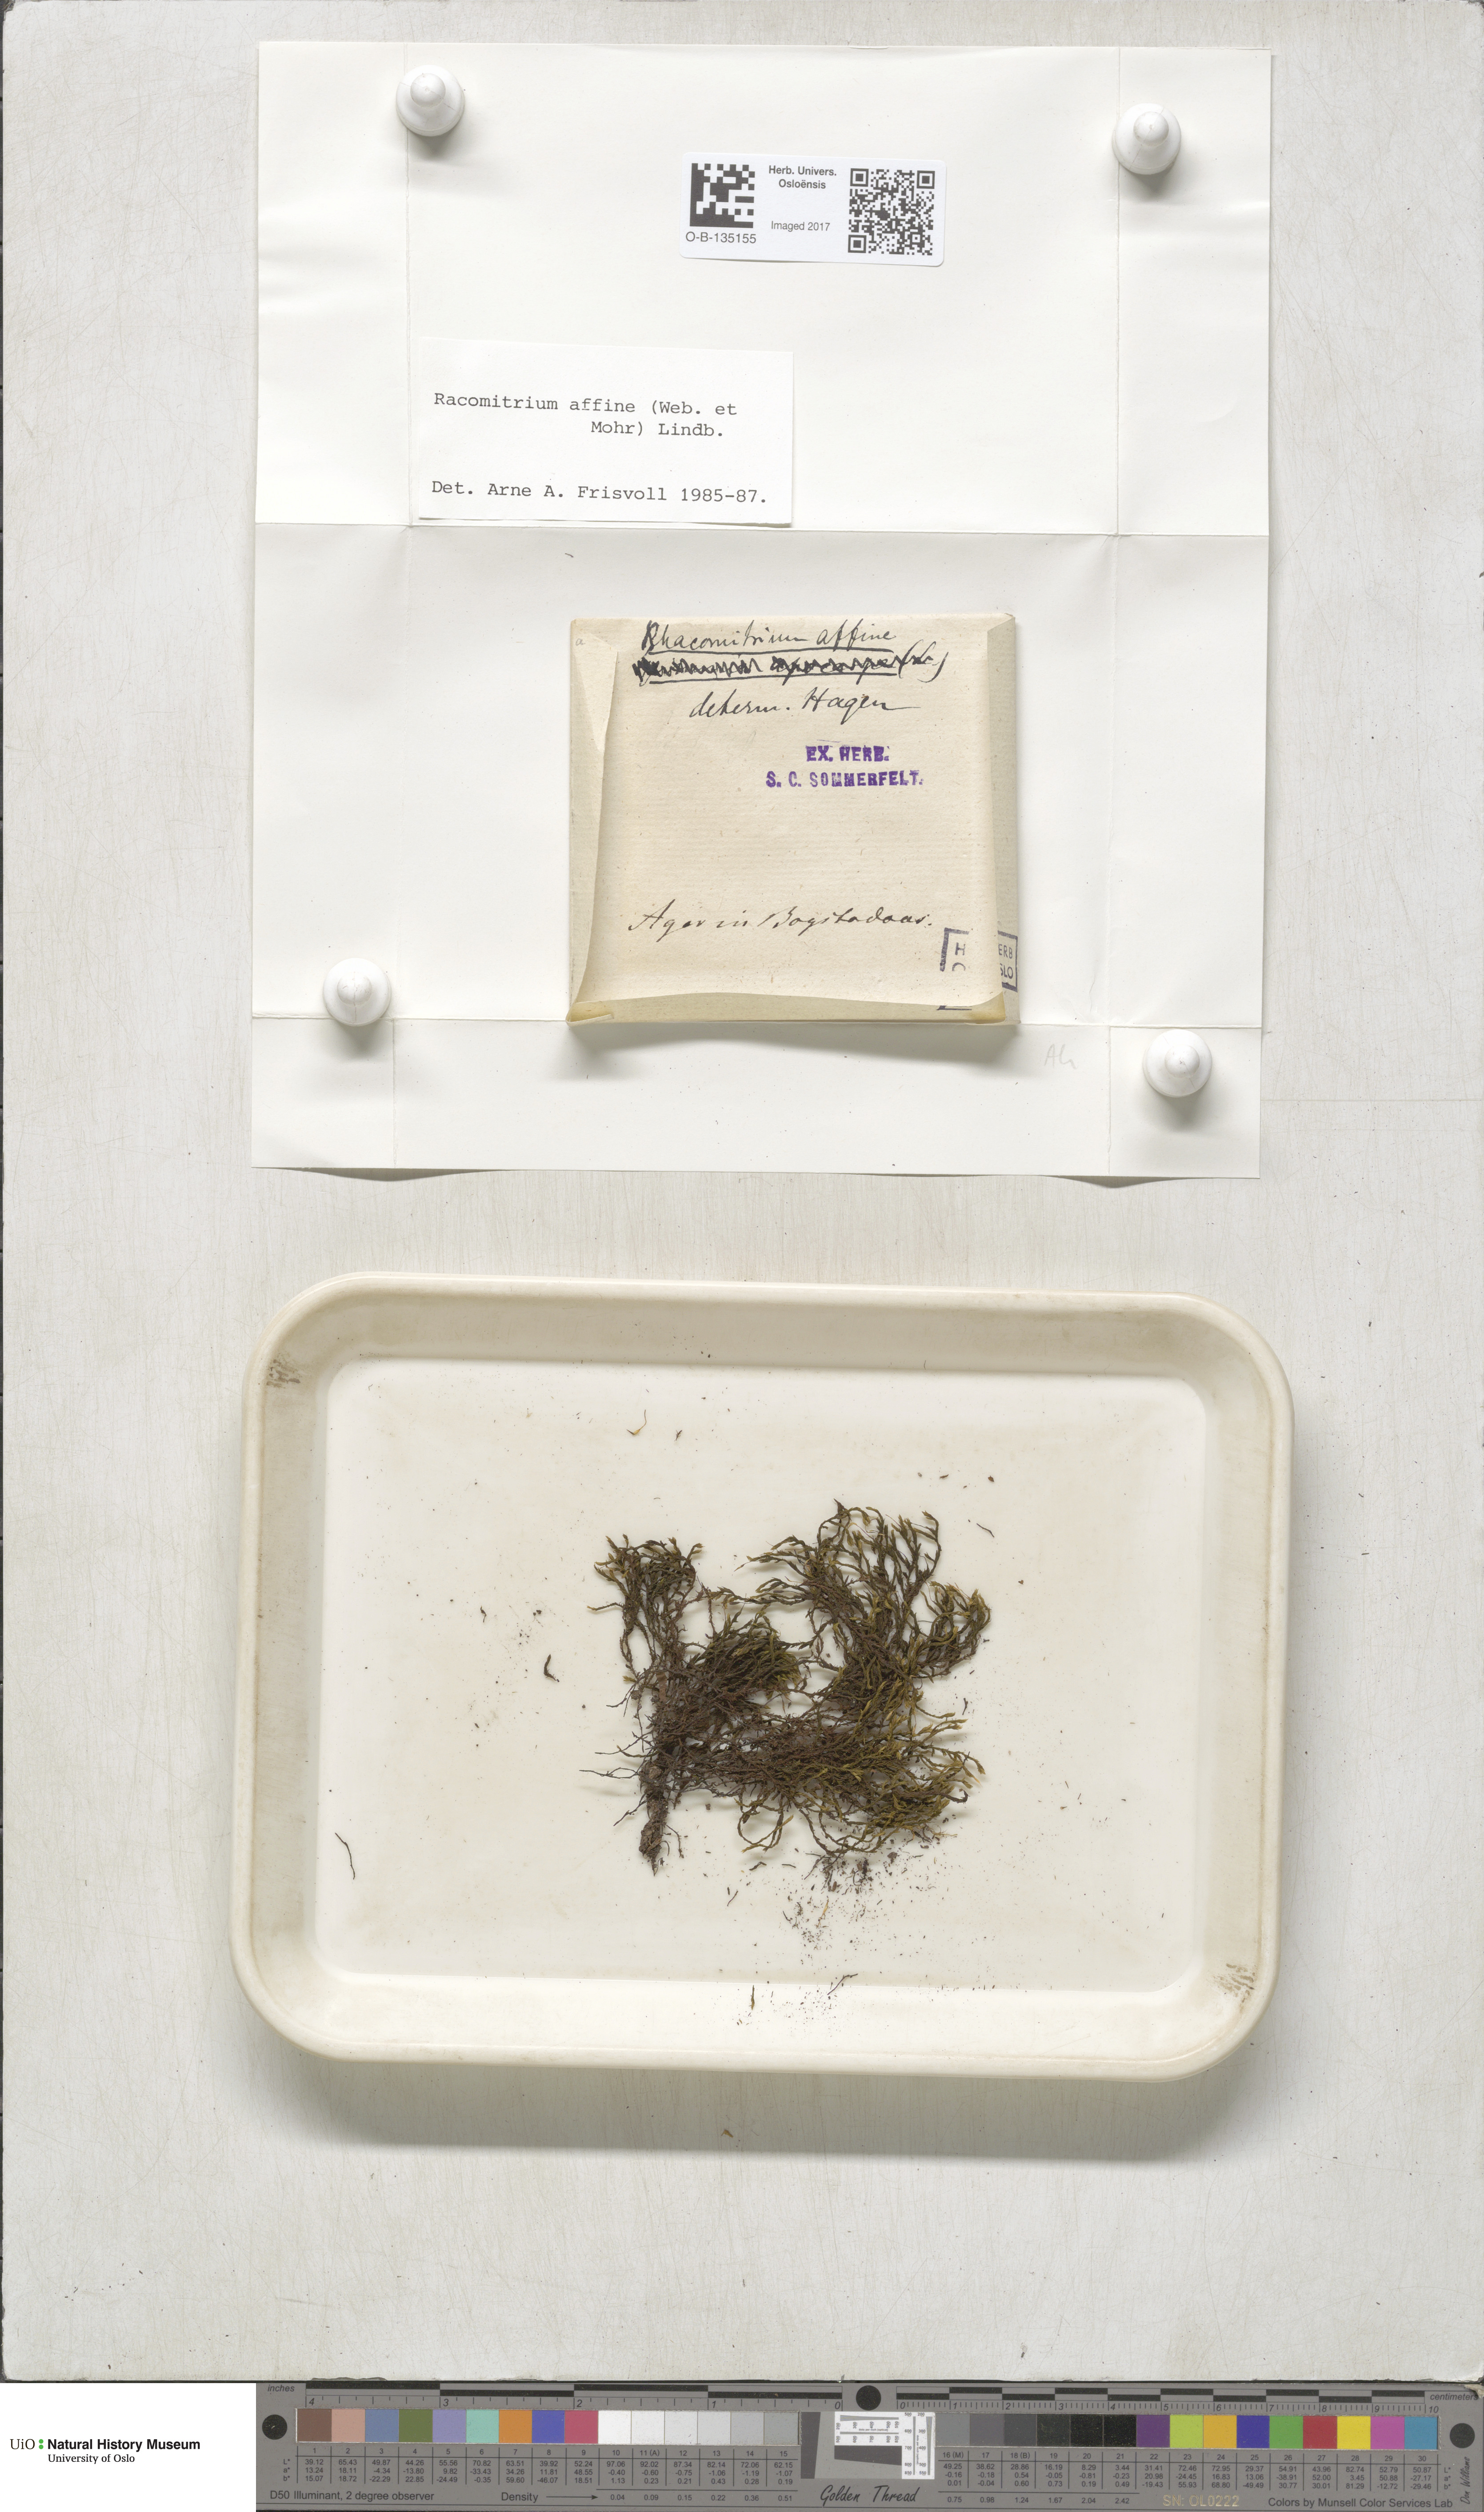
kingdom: Plantae
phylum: Bryophyta
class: Bryopsida
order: Grimmiales
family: Grimmiaceae
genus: Bucklandiella
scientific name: Bucklandiella affinis
